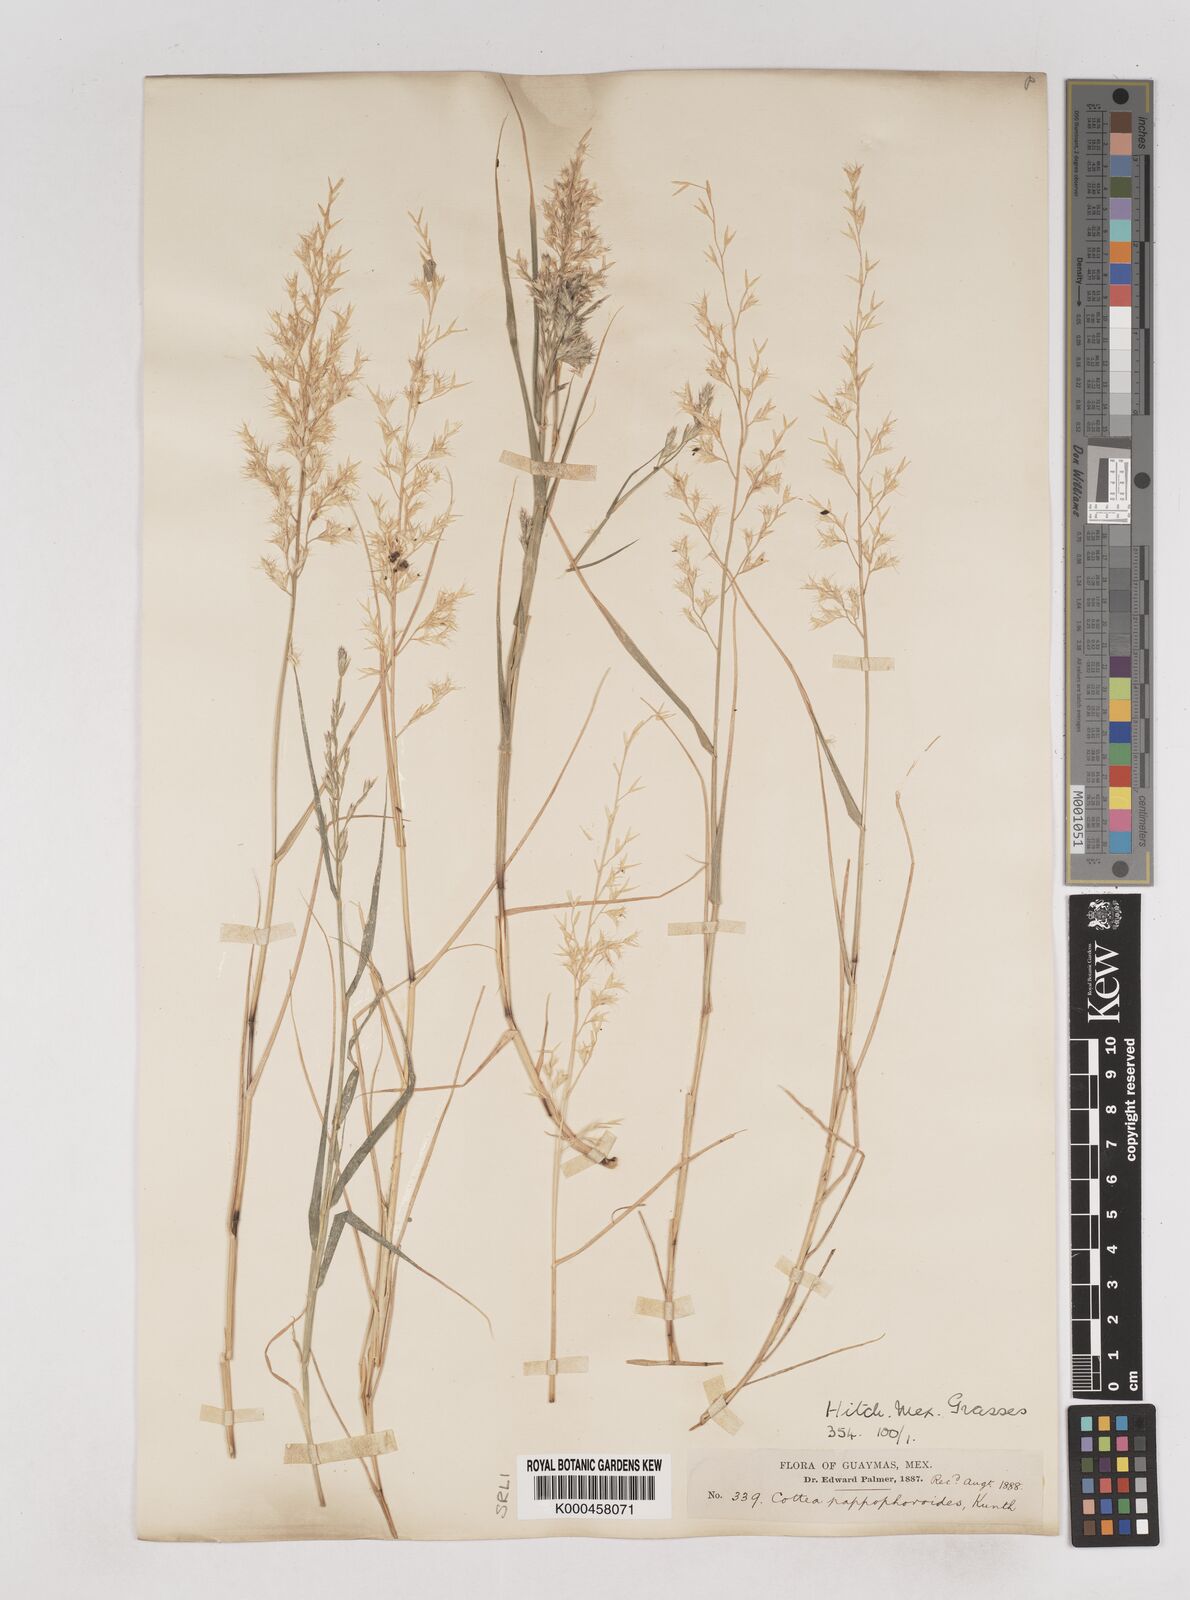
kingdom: Plantae
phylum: Tracheophyta
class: Liliopsida
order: Poales
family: Poaceae
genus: Cottea
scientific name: Cottea
